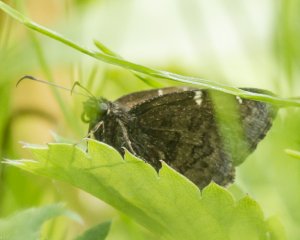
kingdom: Animalia
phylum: Arthropoda
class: Insecta
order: Lepidoptera
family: Hesperiidae
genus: Autochton
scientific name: Autochton
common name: Northern Cloudywing
